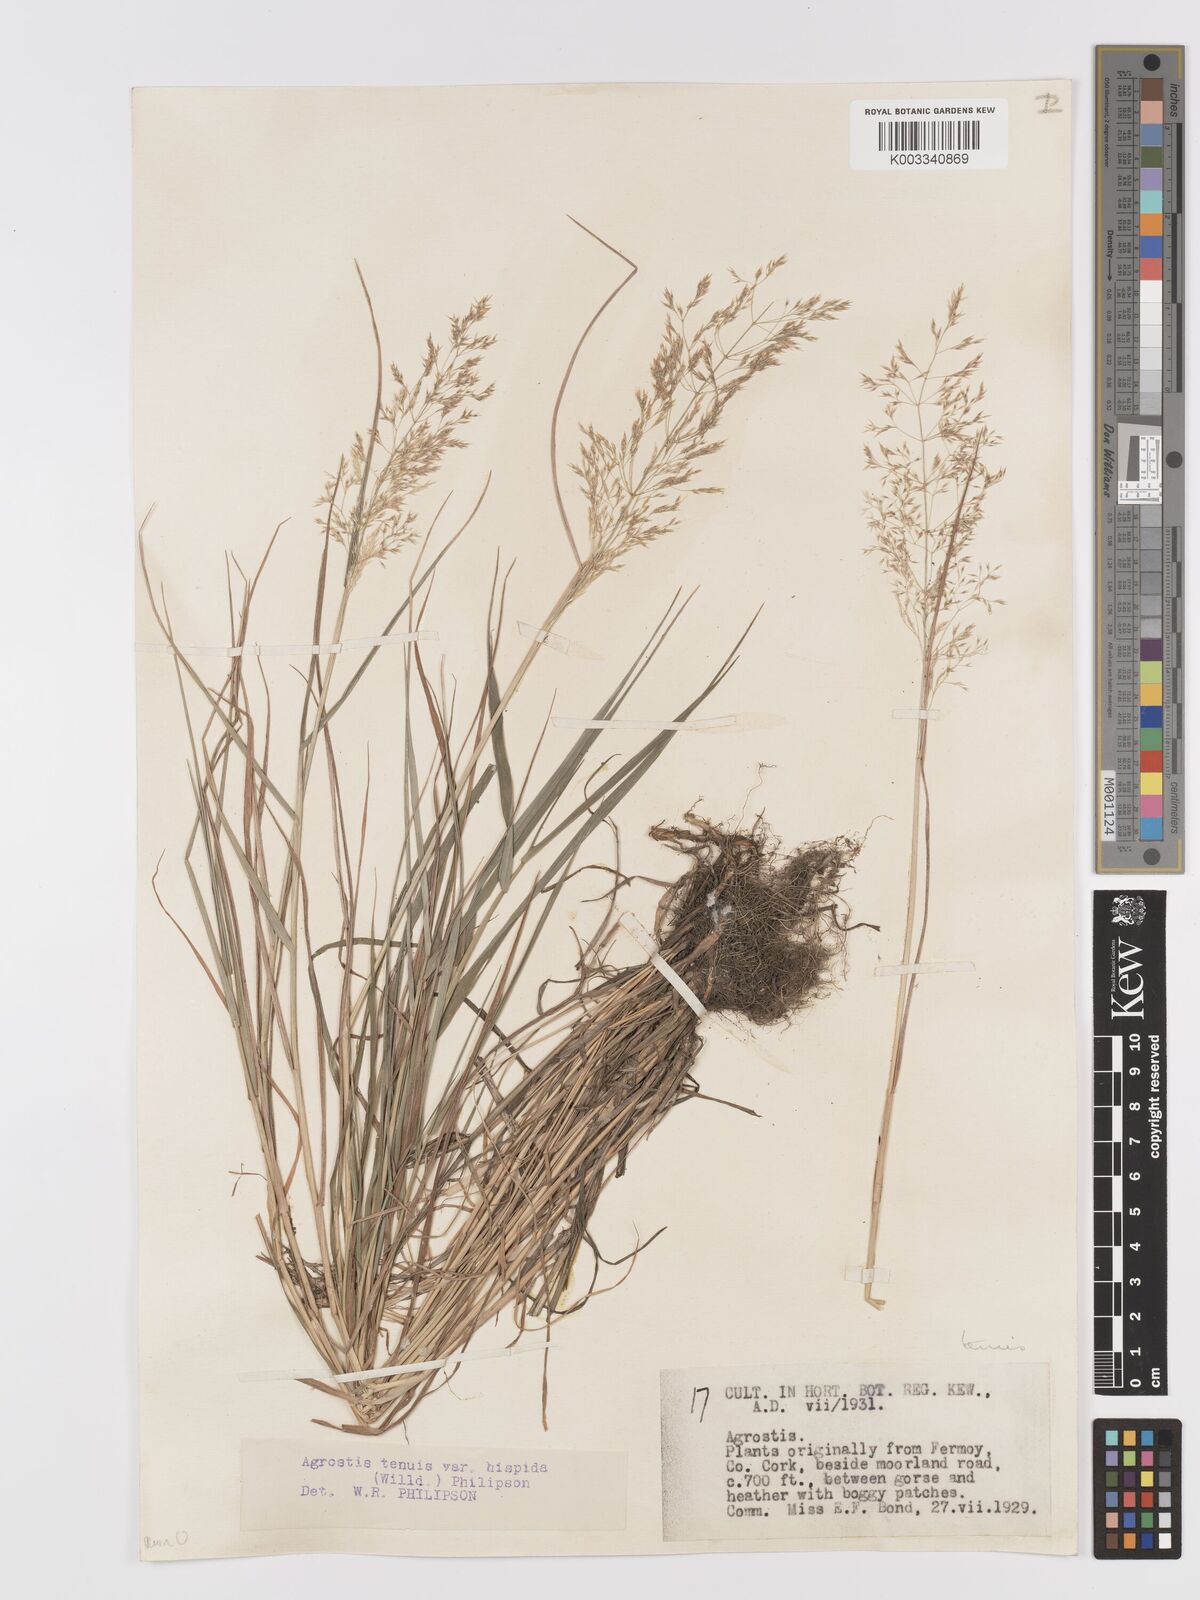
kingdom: Plantae
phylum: Tracheophyta
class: Liliopsida
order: Poales
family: Poaceae
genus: Agrostis
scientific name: Agrostis capillaris
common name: Colonial bentgrass
